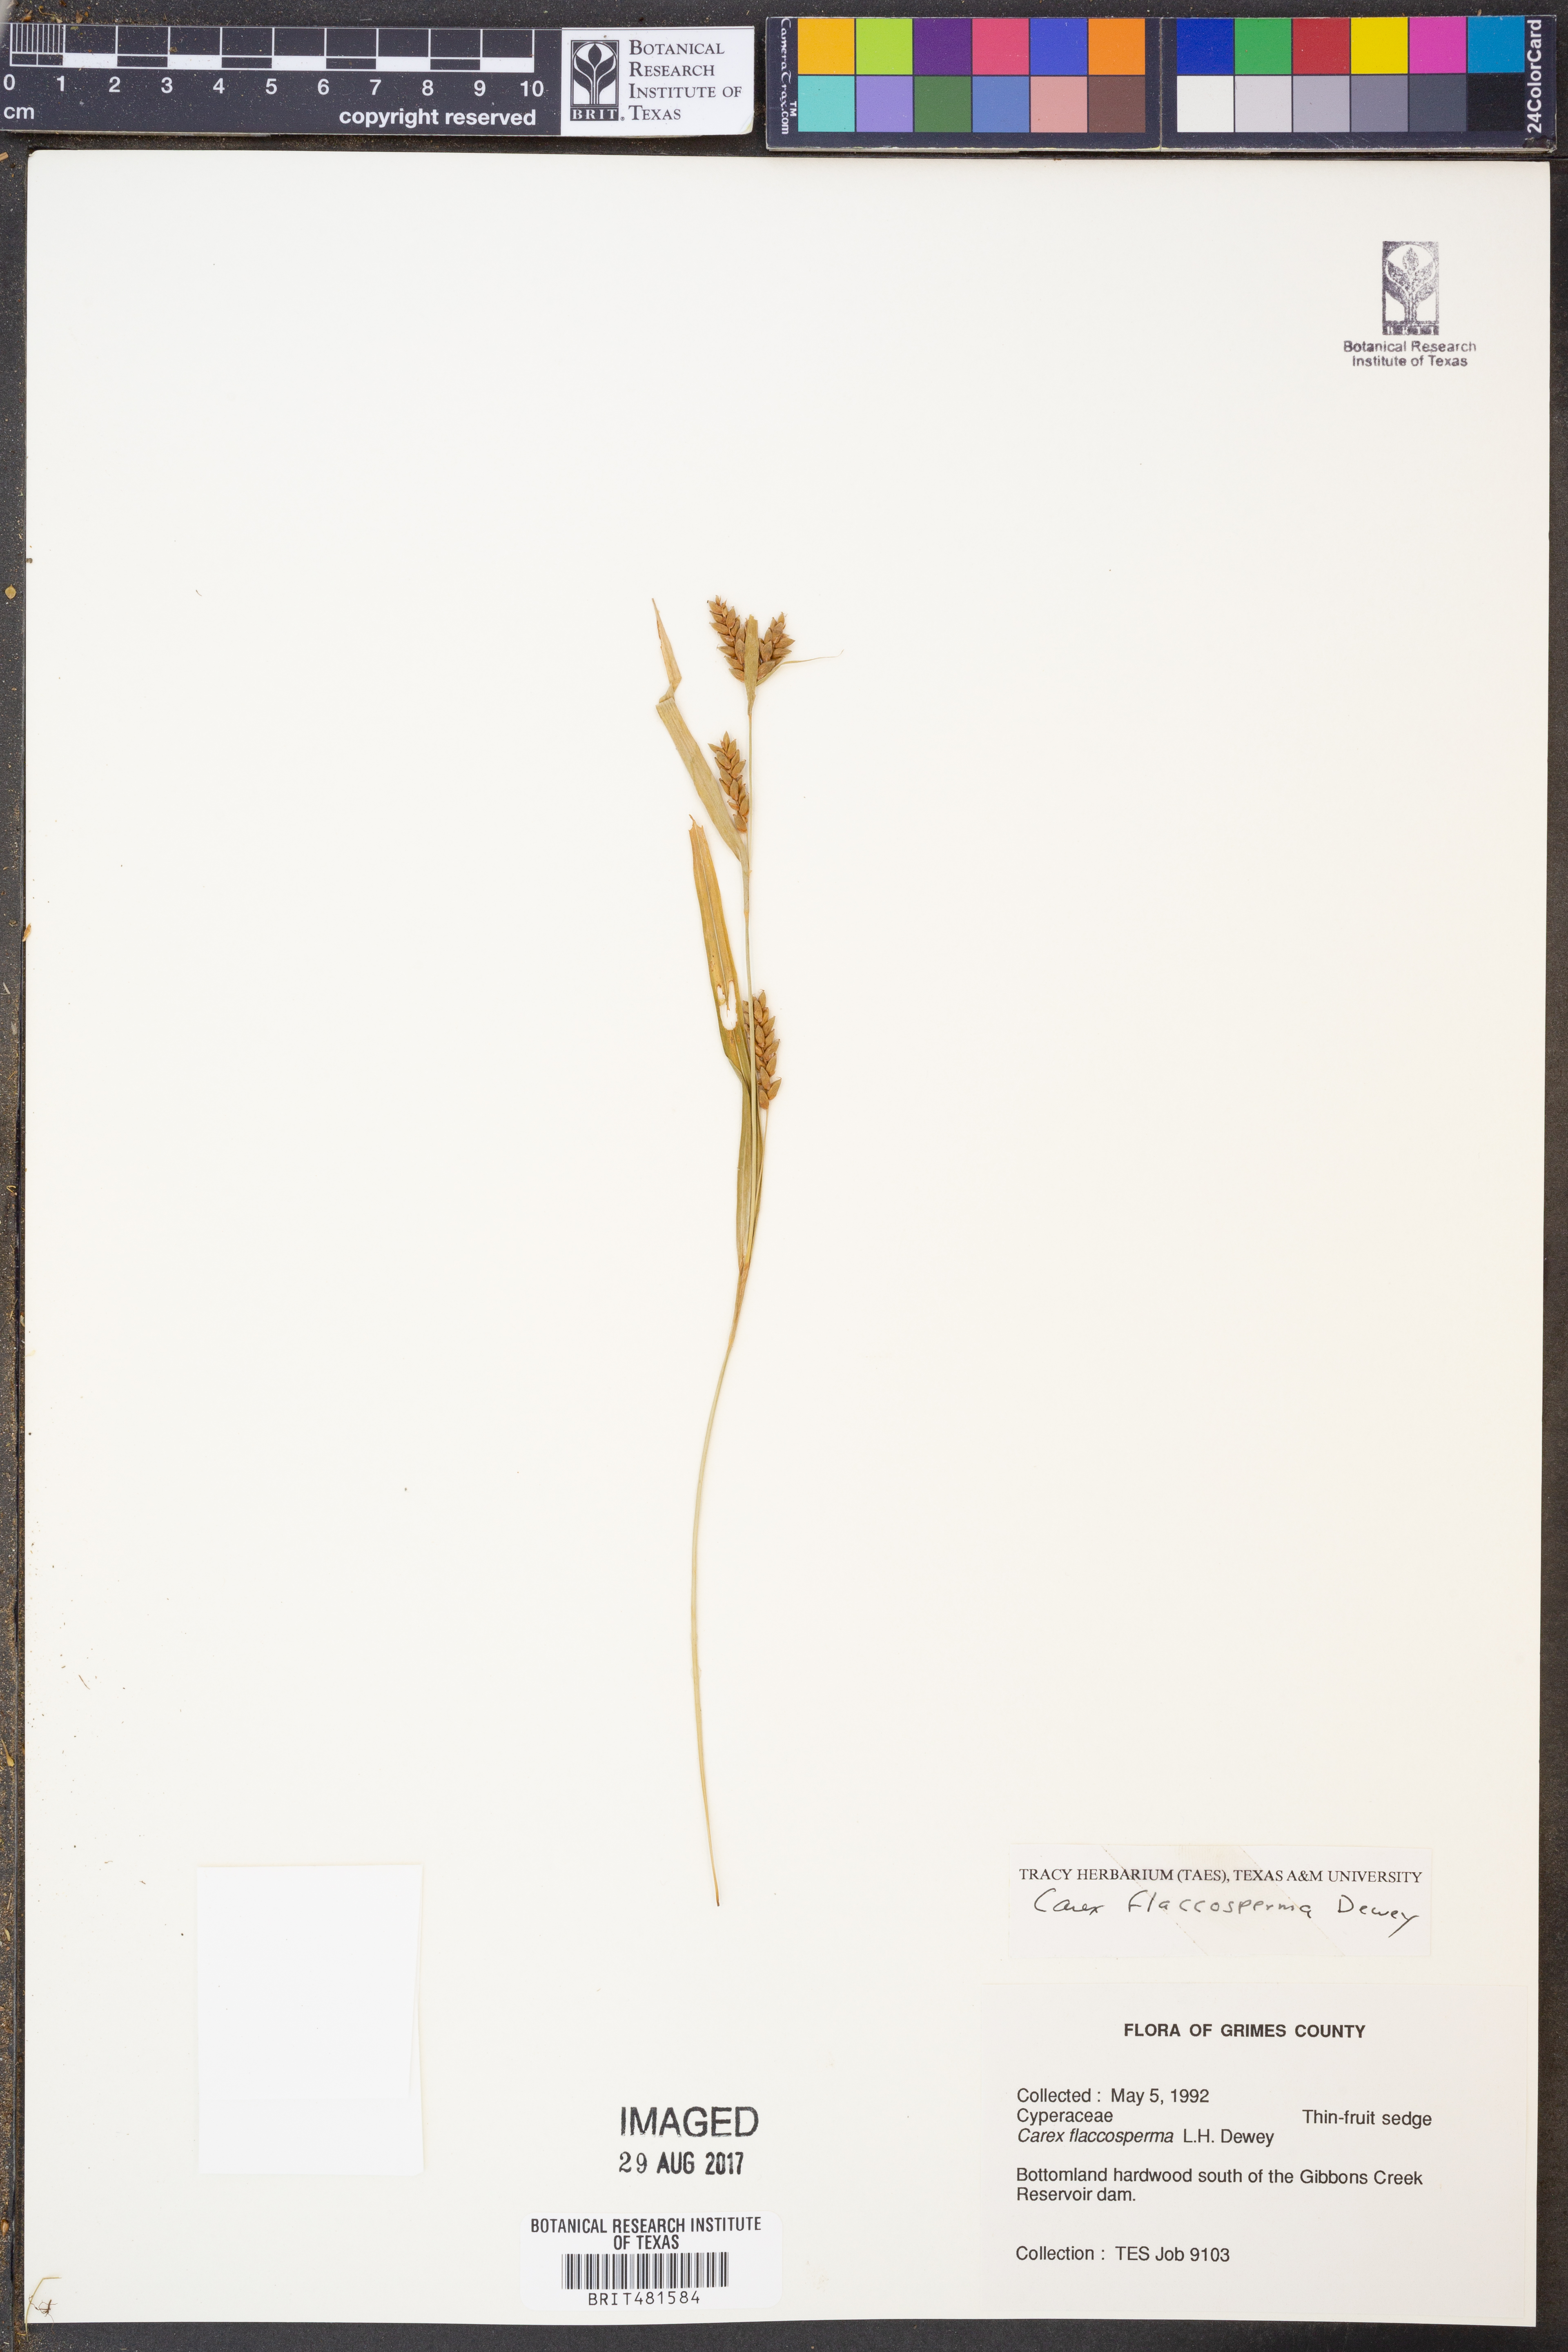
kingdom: Plantae
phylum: Tracheophyta
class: Liliopsida
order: Poales
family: Cyperaceae
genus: Carex
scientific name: Carex flaccosperma
